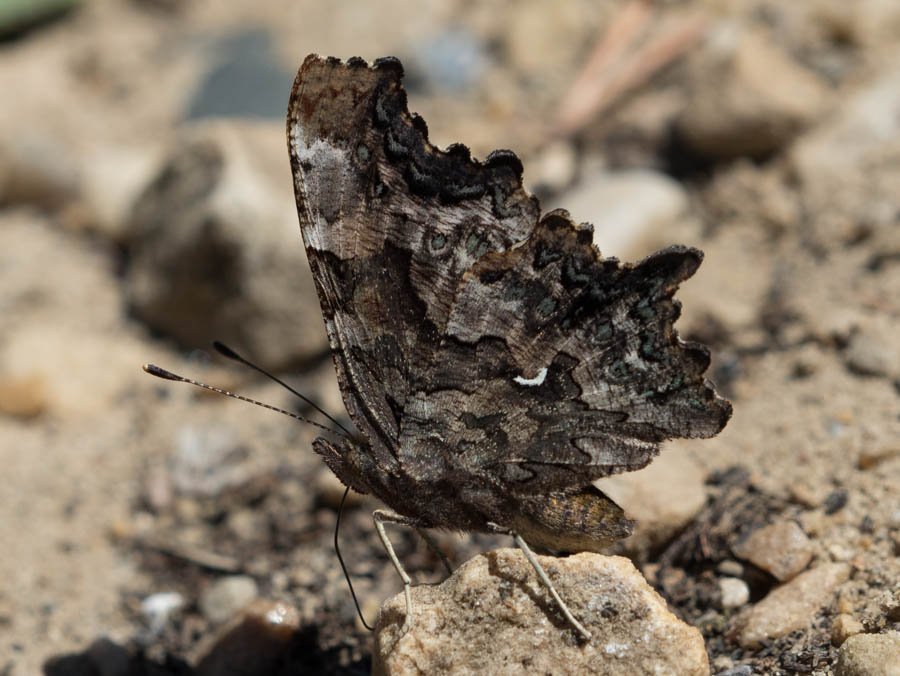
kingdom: Animalia
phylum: Arthropoda
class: Insecta
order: Lepidoptera
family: Nymphalidae
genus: Polygonia
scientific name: Polygonia faunus
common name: Green Comma
